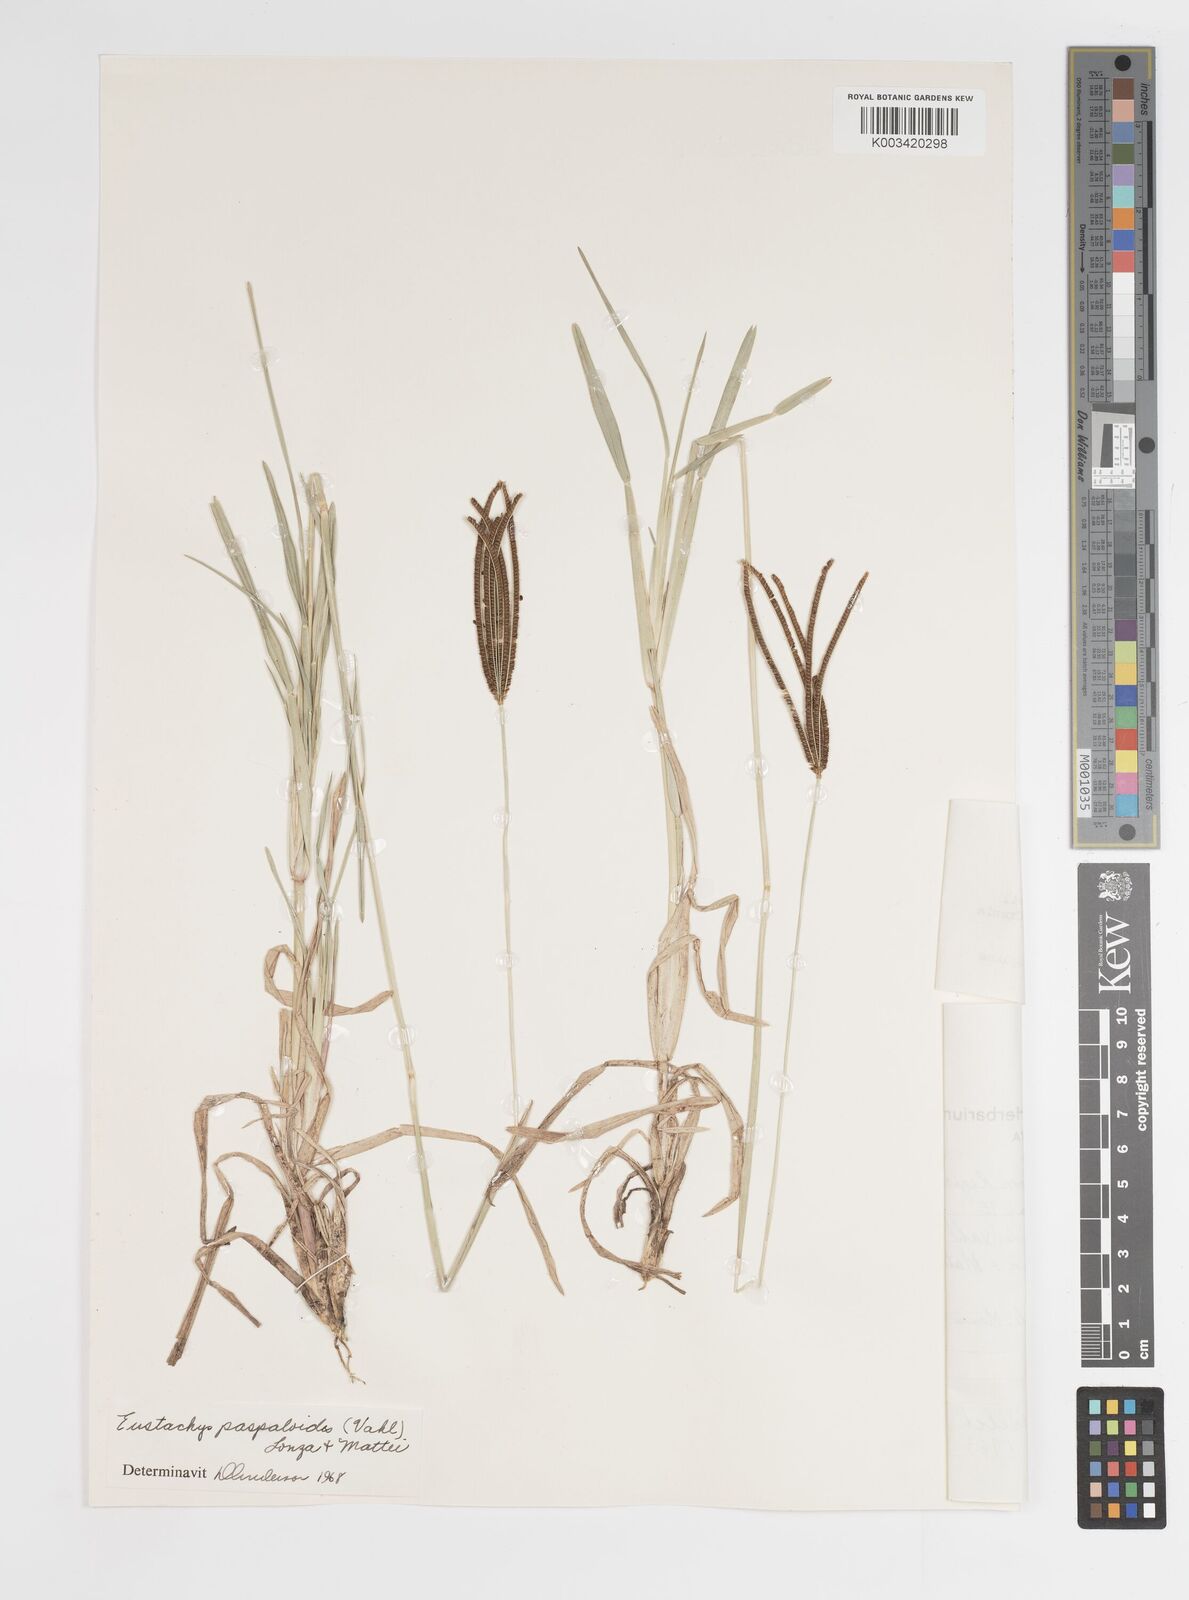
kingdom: Plantae
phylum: Tracheophyta
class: Liliopsida
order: Poales
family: Poaceae
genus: Eustachys
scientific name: Eustachys
